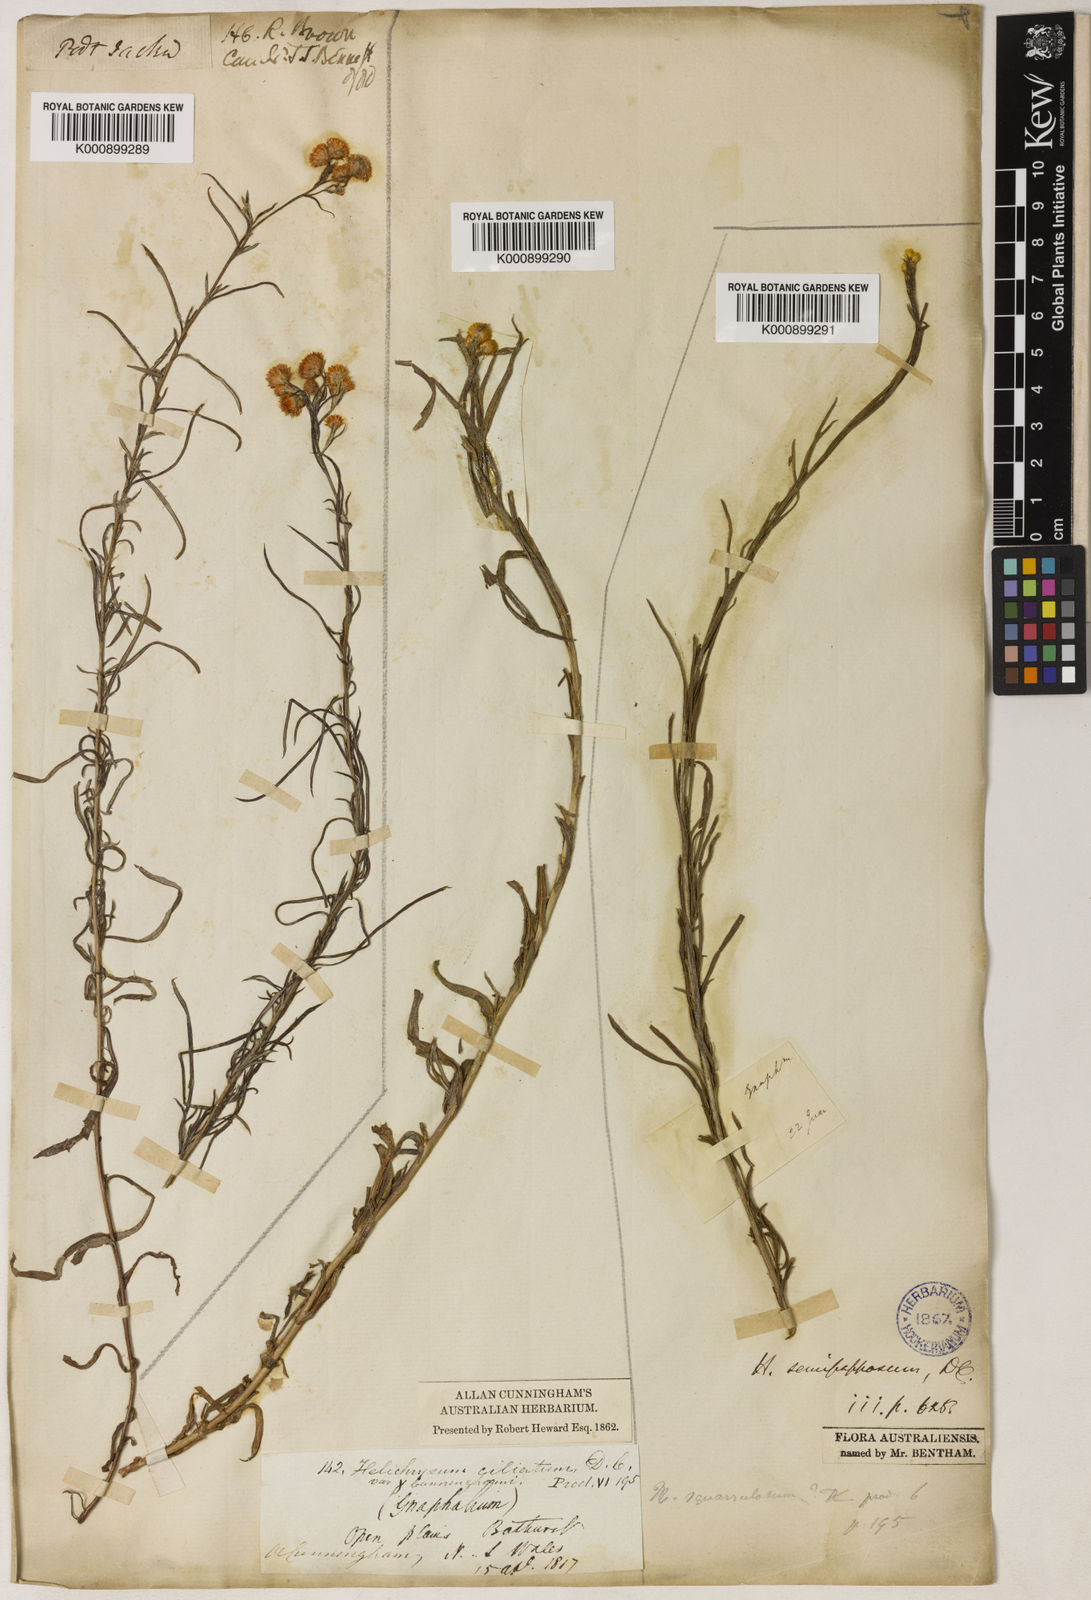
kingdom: Plantae
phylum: Tracheophyta
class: Magnoliopsida
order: Asterales
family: Asteraceae
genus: Chrysocephalum
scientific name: Chrysocephalum semipapposum
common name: Clustered everlasting
